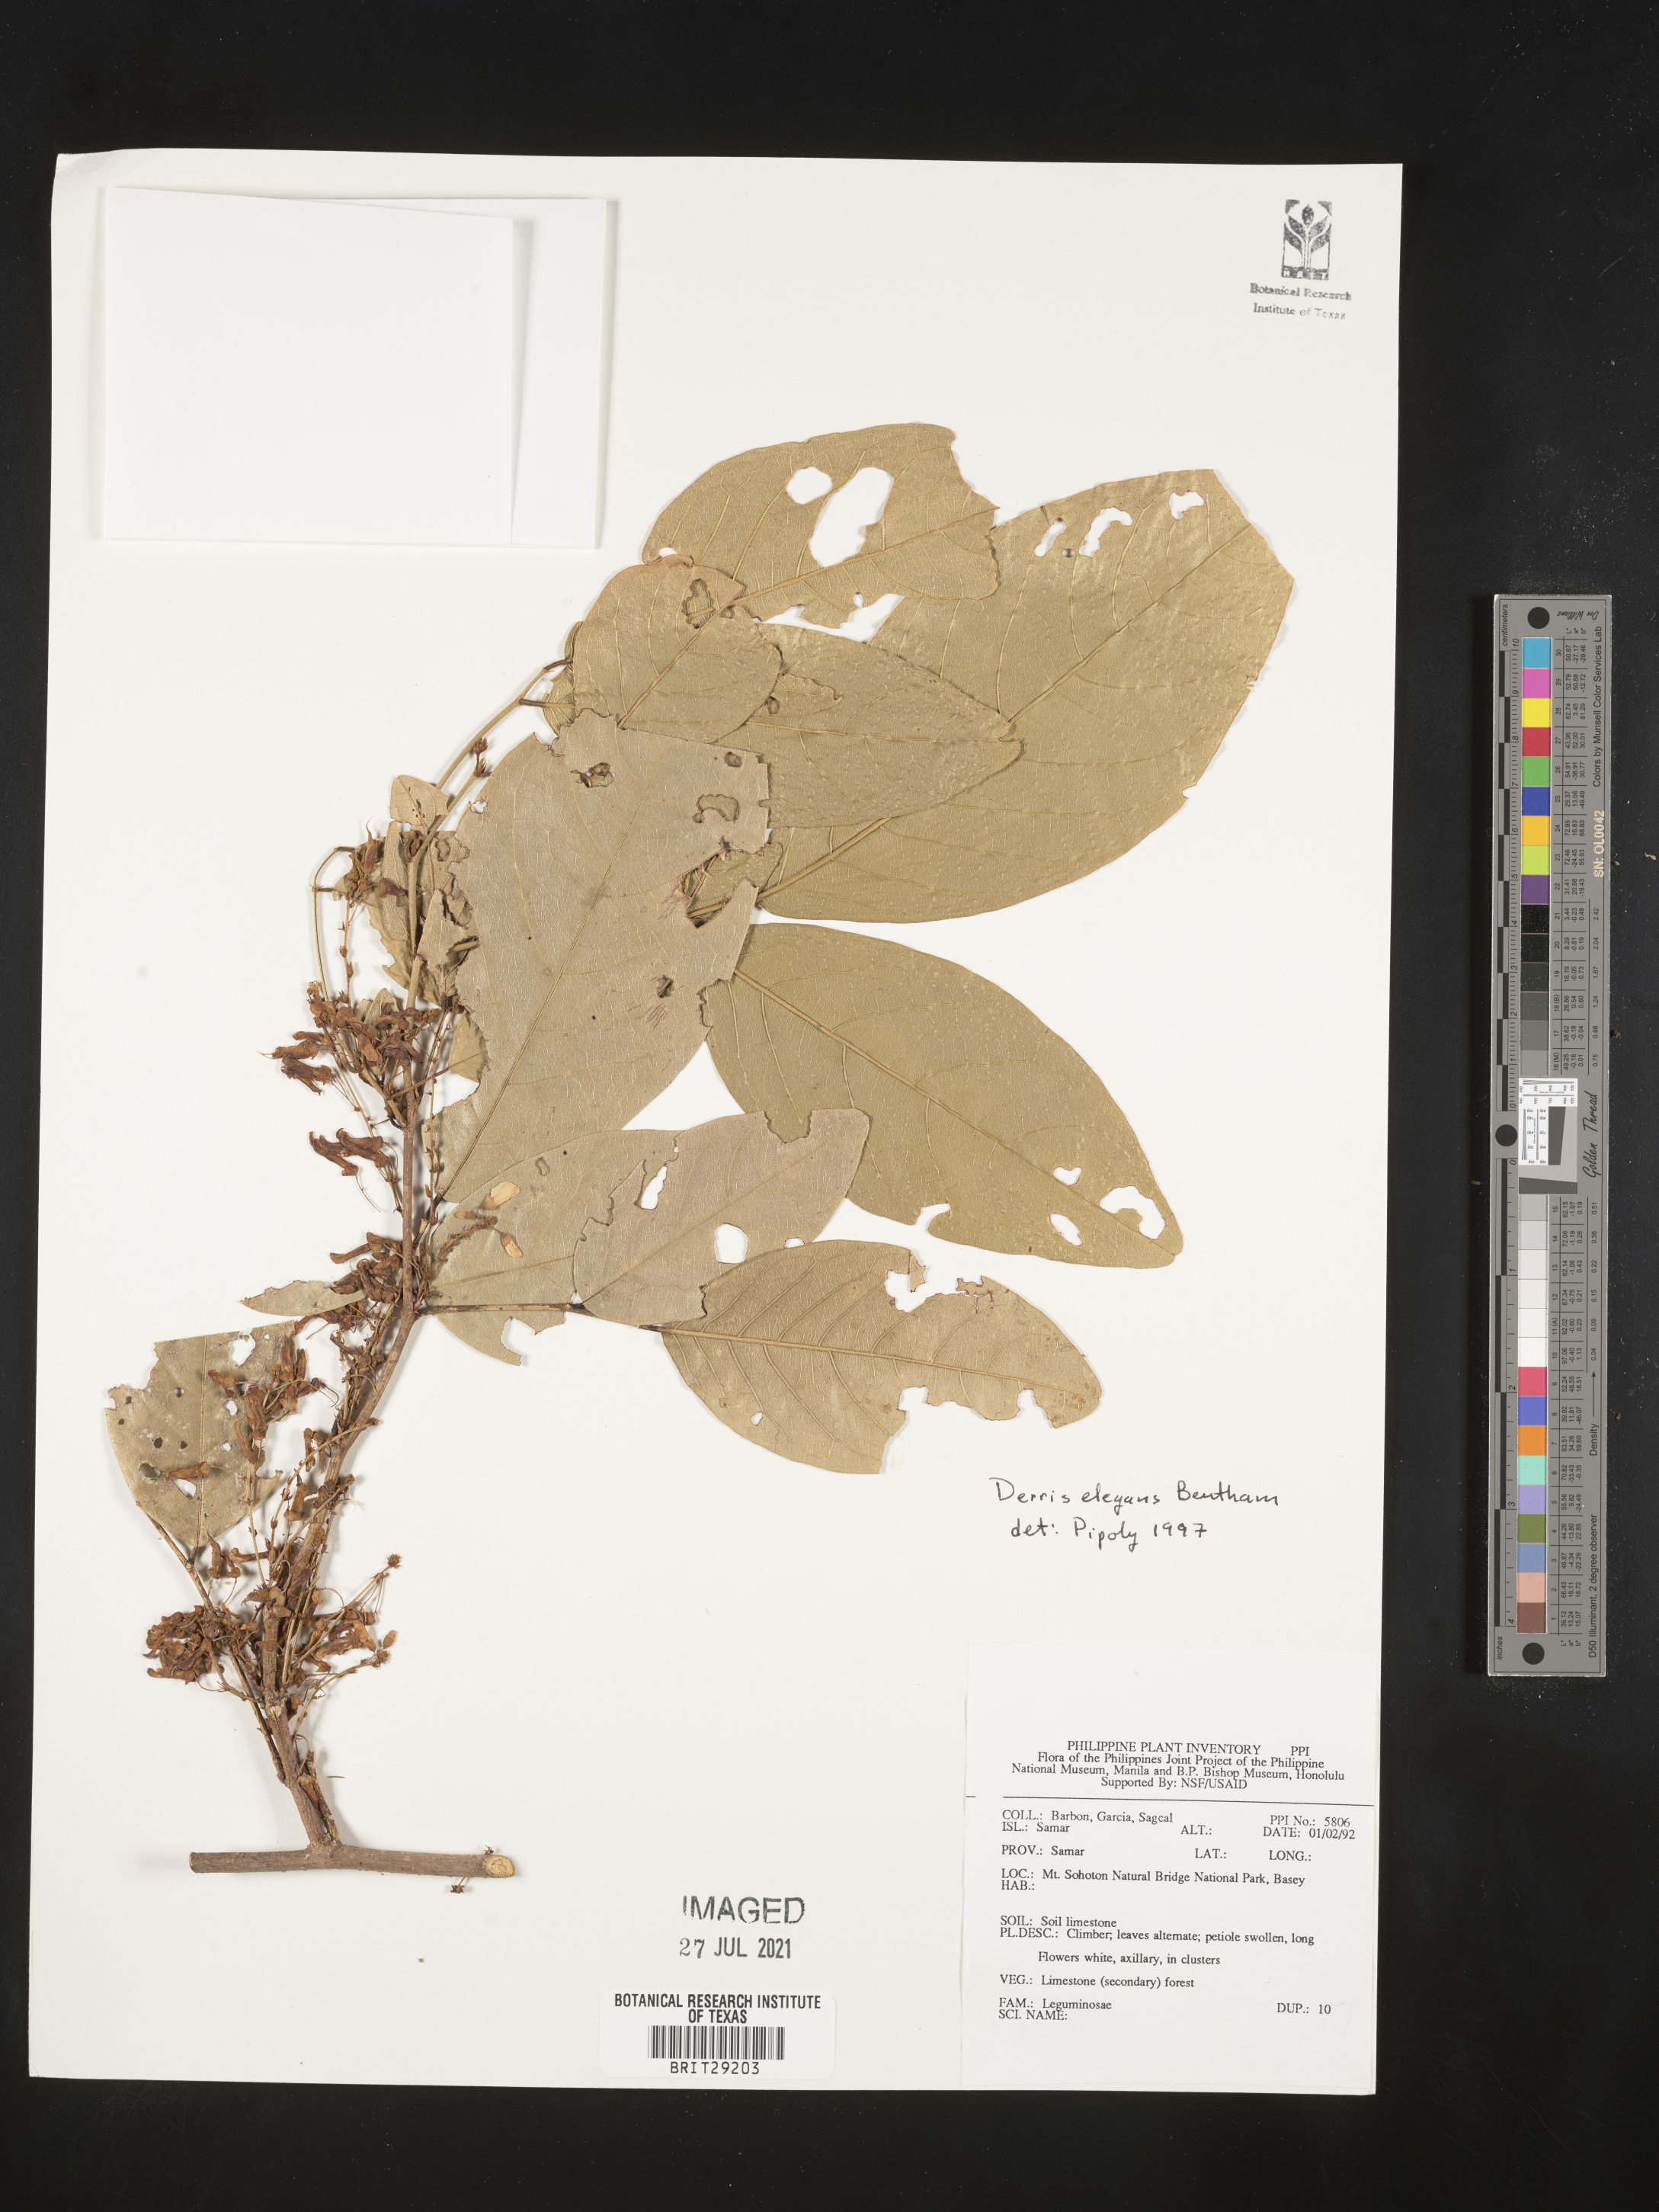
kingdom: Plantae
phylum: Tracheophyta
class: Magnoliopsida
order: Fabales
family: Fabaceae
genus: Derris
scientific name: Derris elegans
